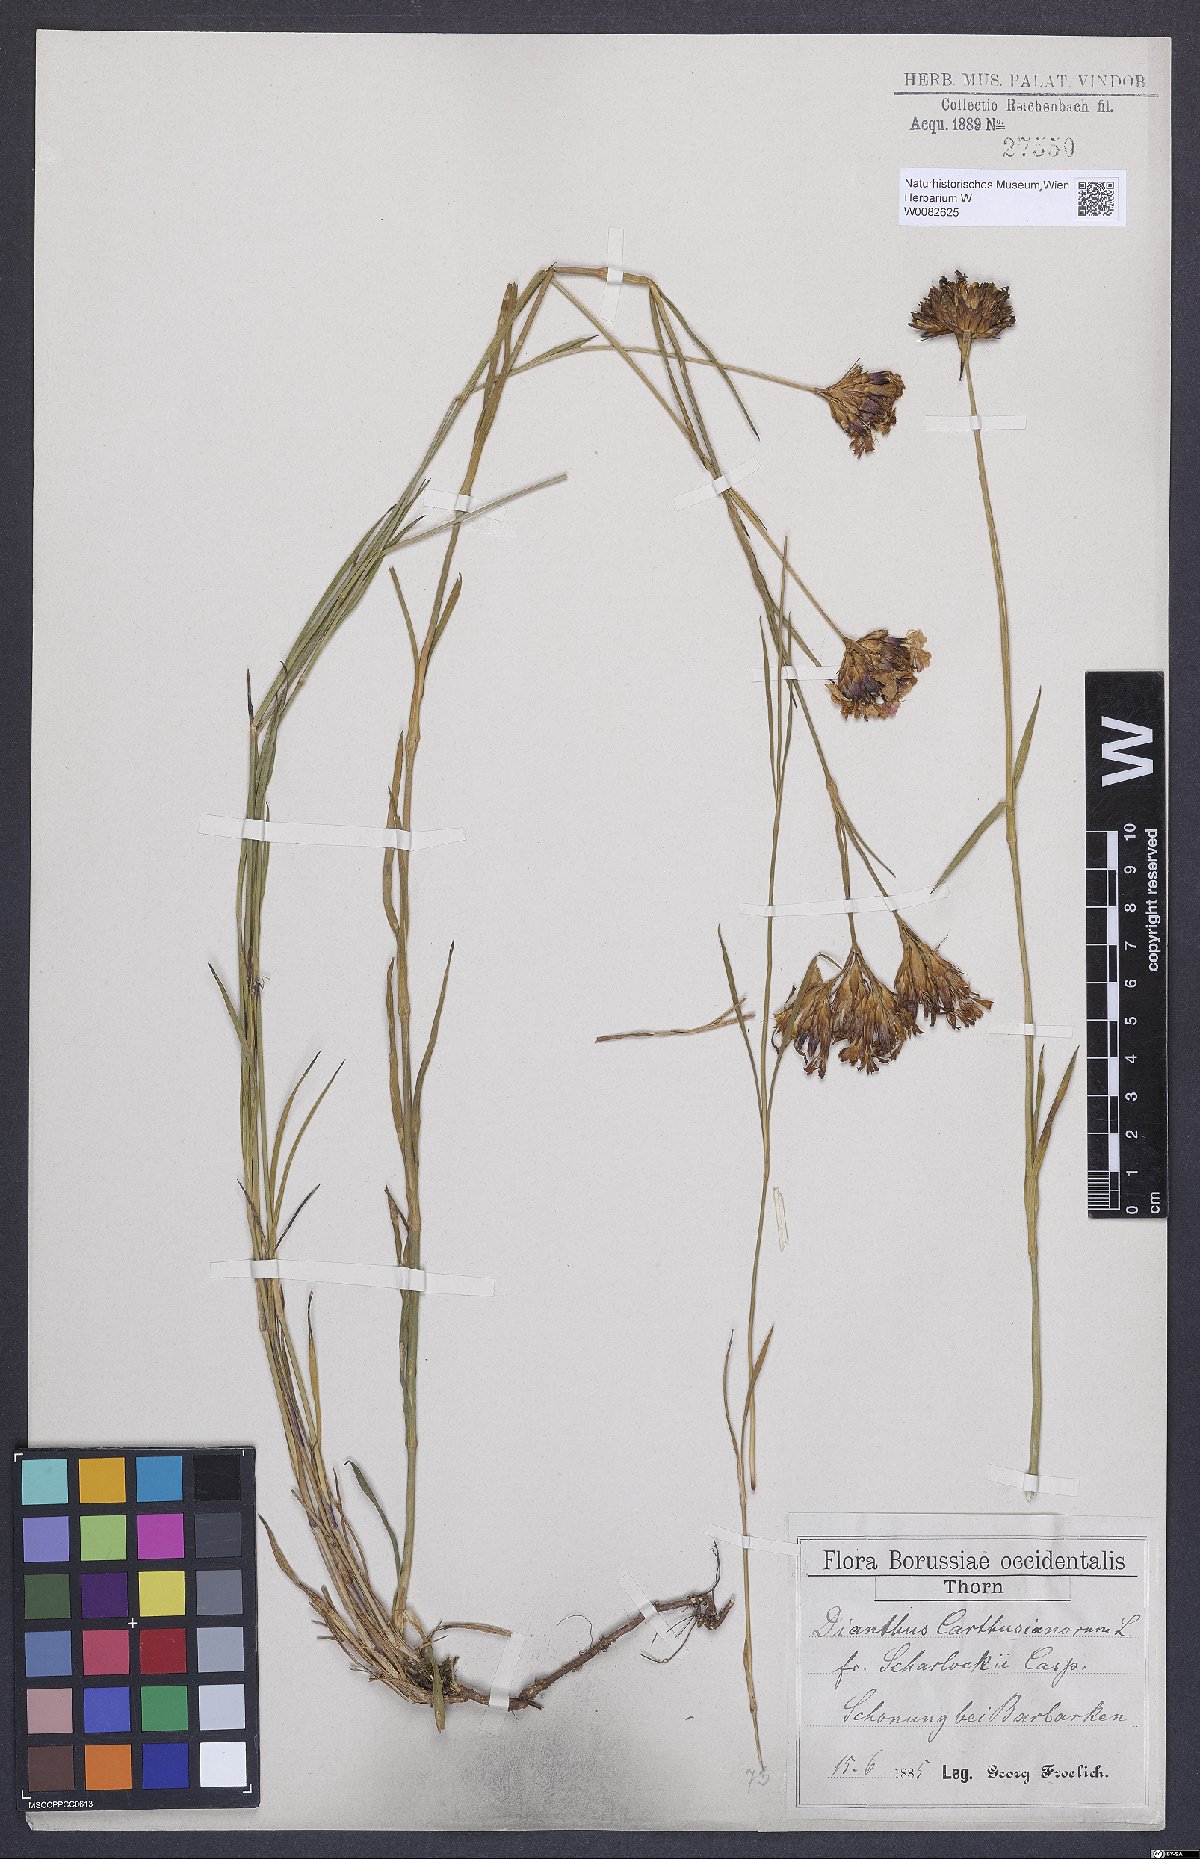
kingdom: Plantae
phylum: Tracheophyta
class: Magnoliopsida
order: Caryophyllales
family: Caryophyllaceae
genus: Dianthus
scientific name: Dianthus carthusianorum
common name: Carthusian pink
